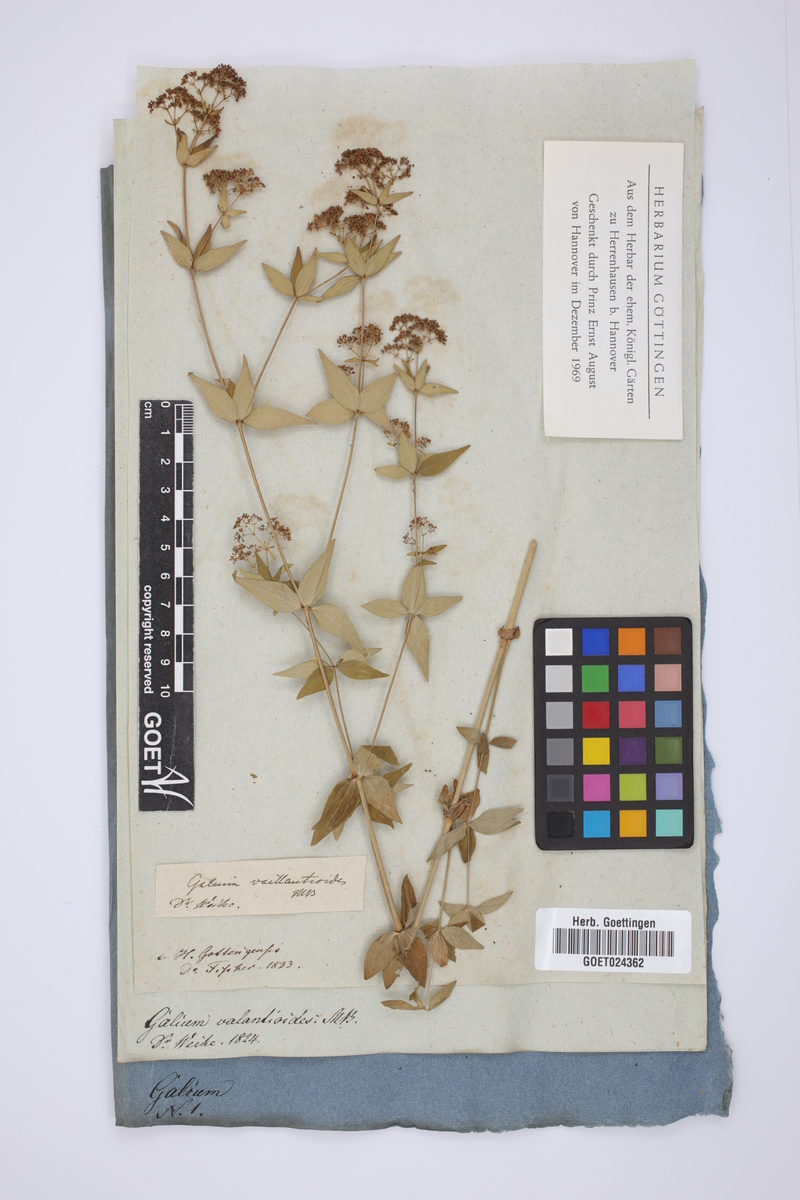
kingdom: Plantae
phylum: Tracheophyta
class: Magnoliopsida
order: Gentianales
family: Rubiaceae
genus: Galium
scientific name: Galium valantioides
